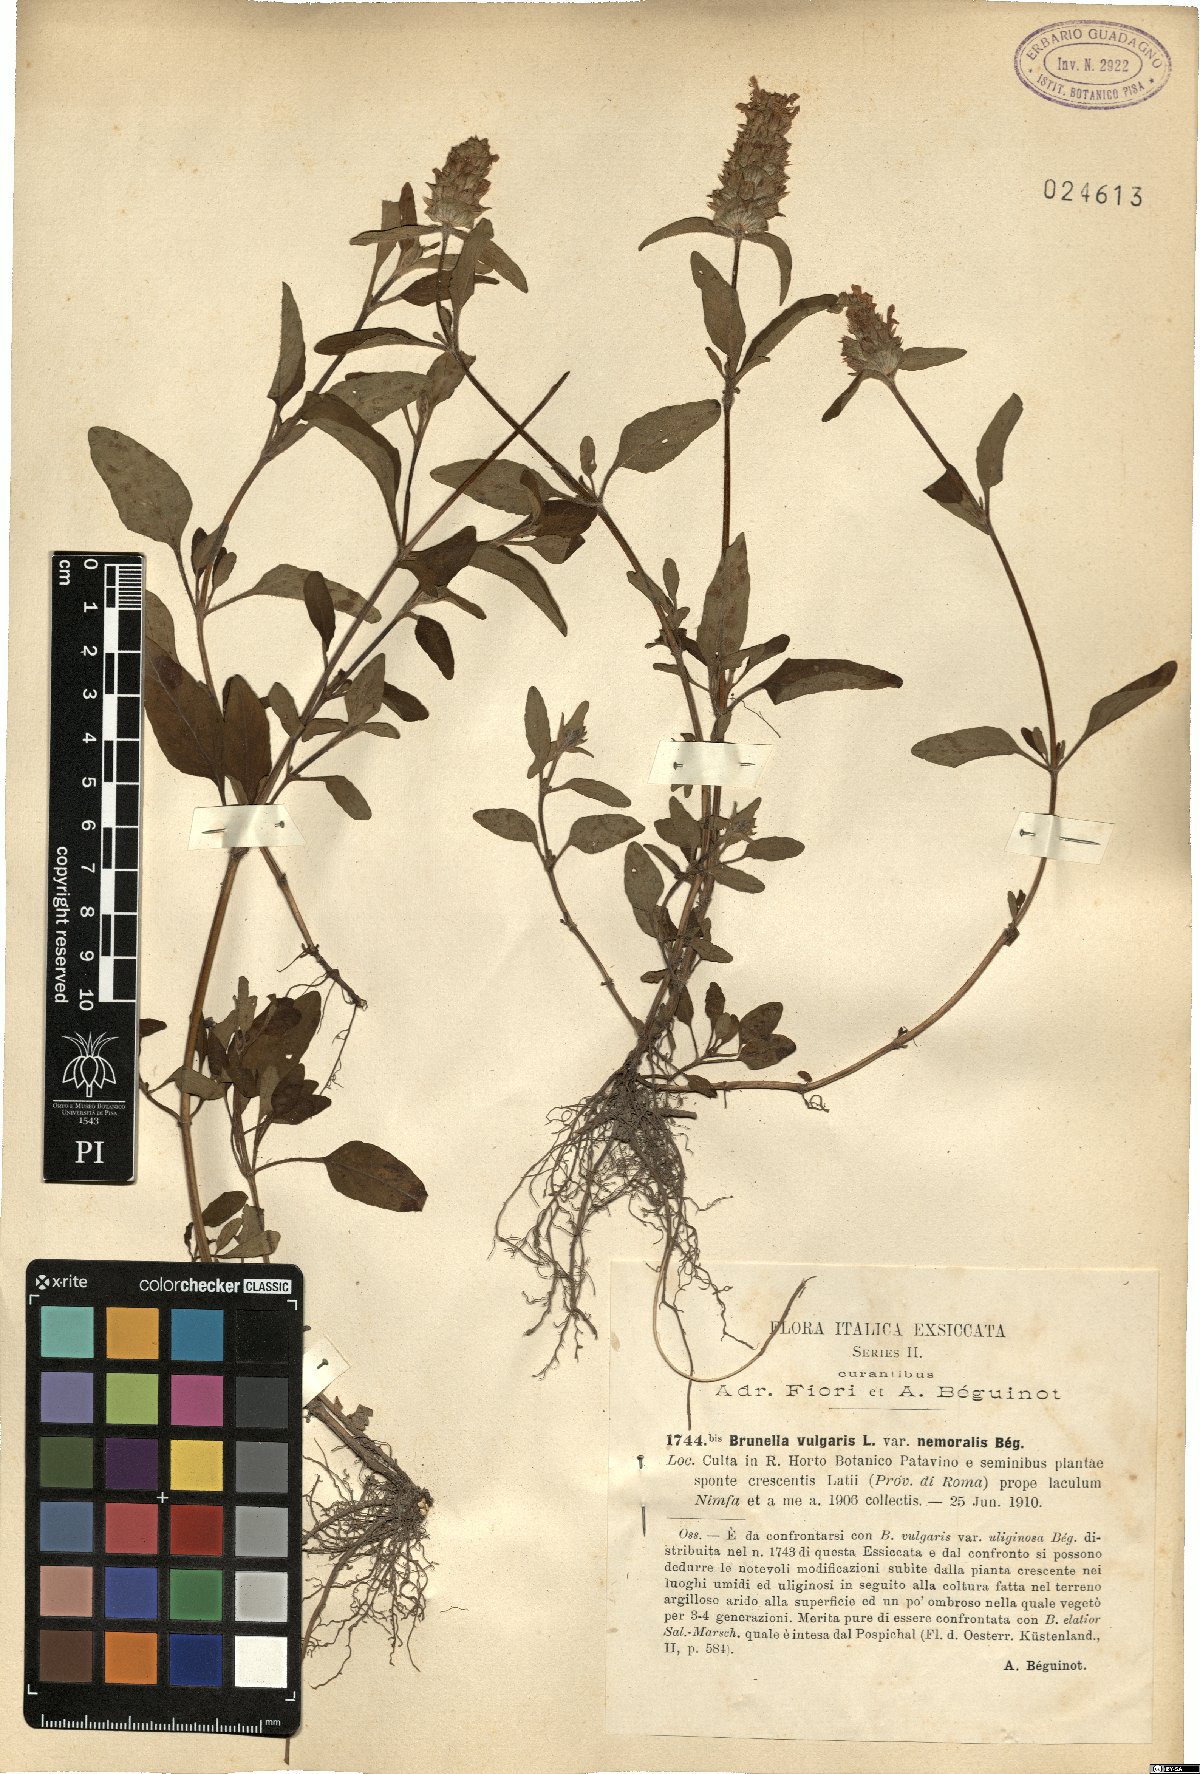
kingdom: Plantae
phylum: Tracheophyta
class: Magnoliopsida
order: Lamiales
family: Lamiaceae
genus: Prunella
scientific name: Prunella laciniata
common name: Cut-leaved selfheal
